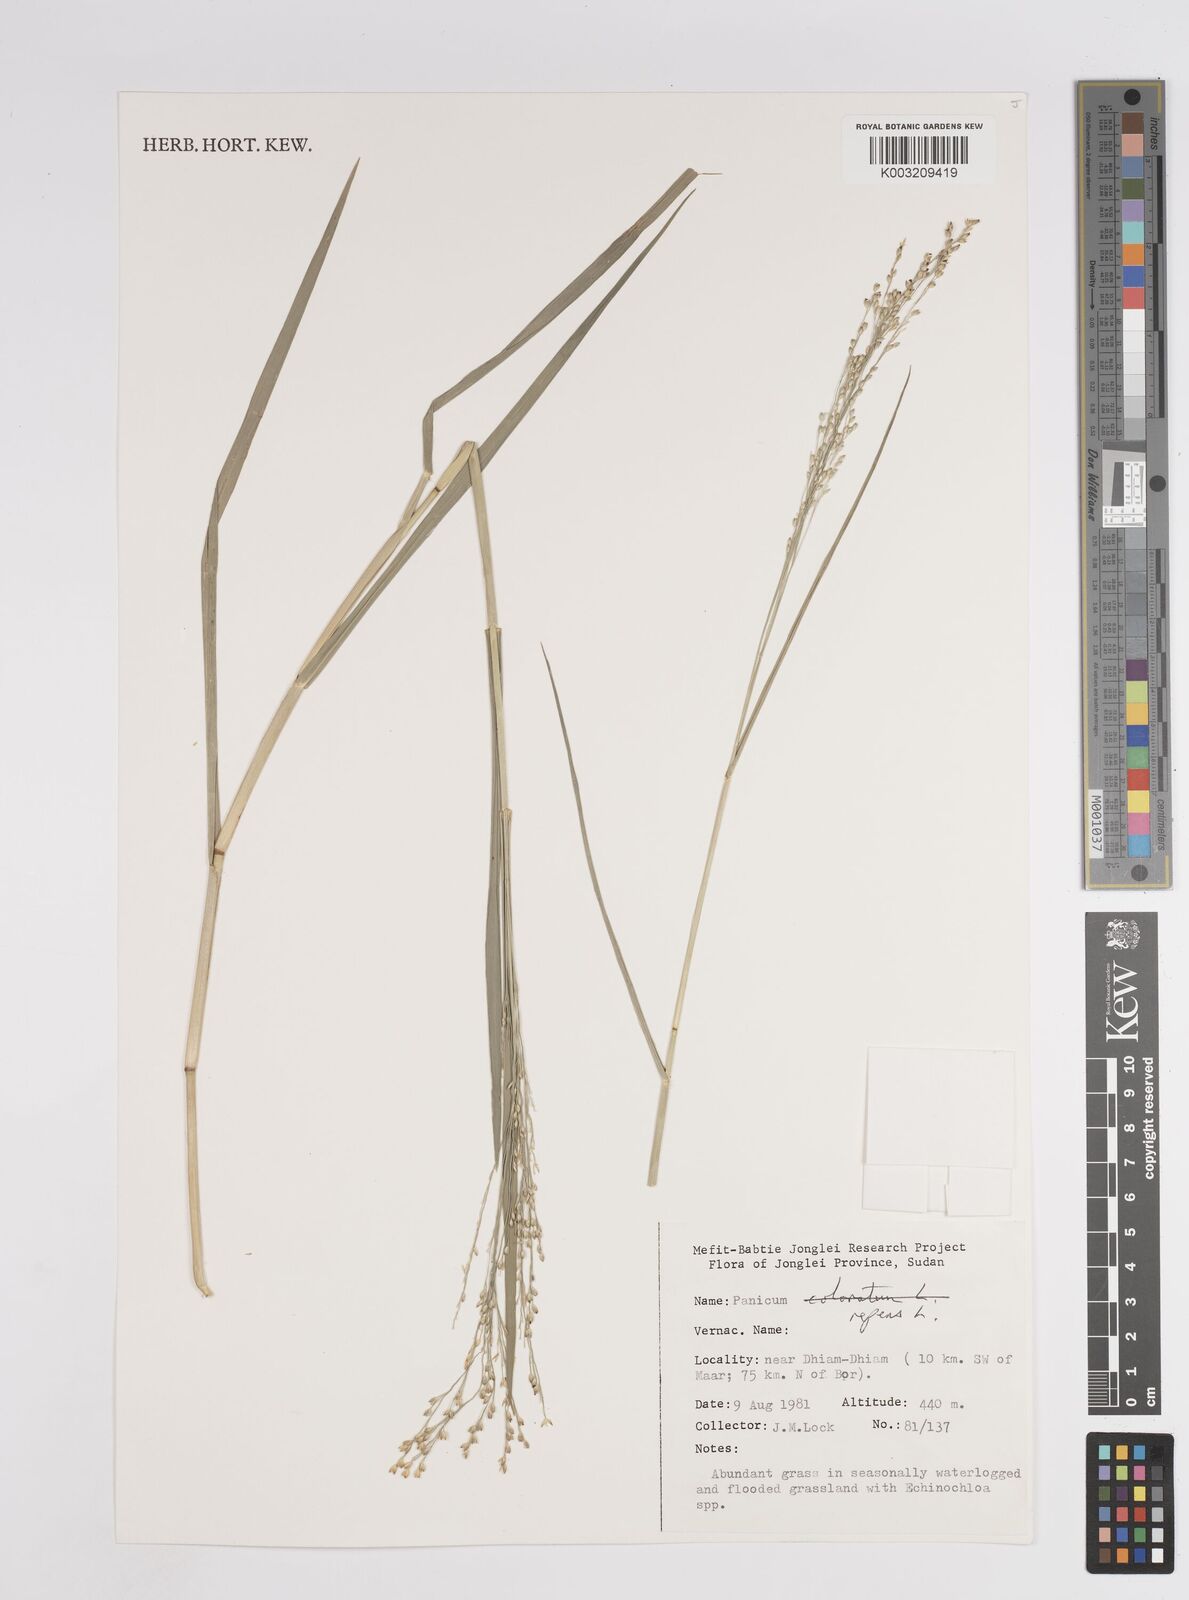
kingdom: Plantae
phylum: Tracheophyta
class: Liliopsida
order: Poales
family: Poaceae
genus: Panicum
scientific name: Panicum repens
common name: Torpedo grass
